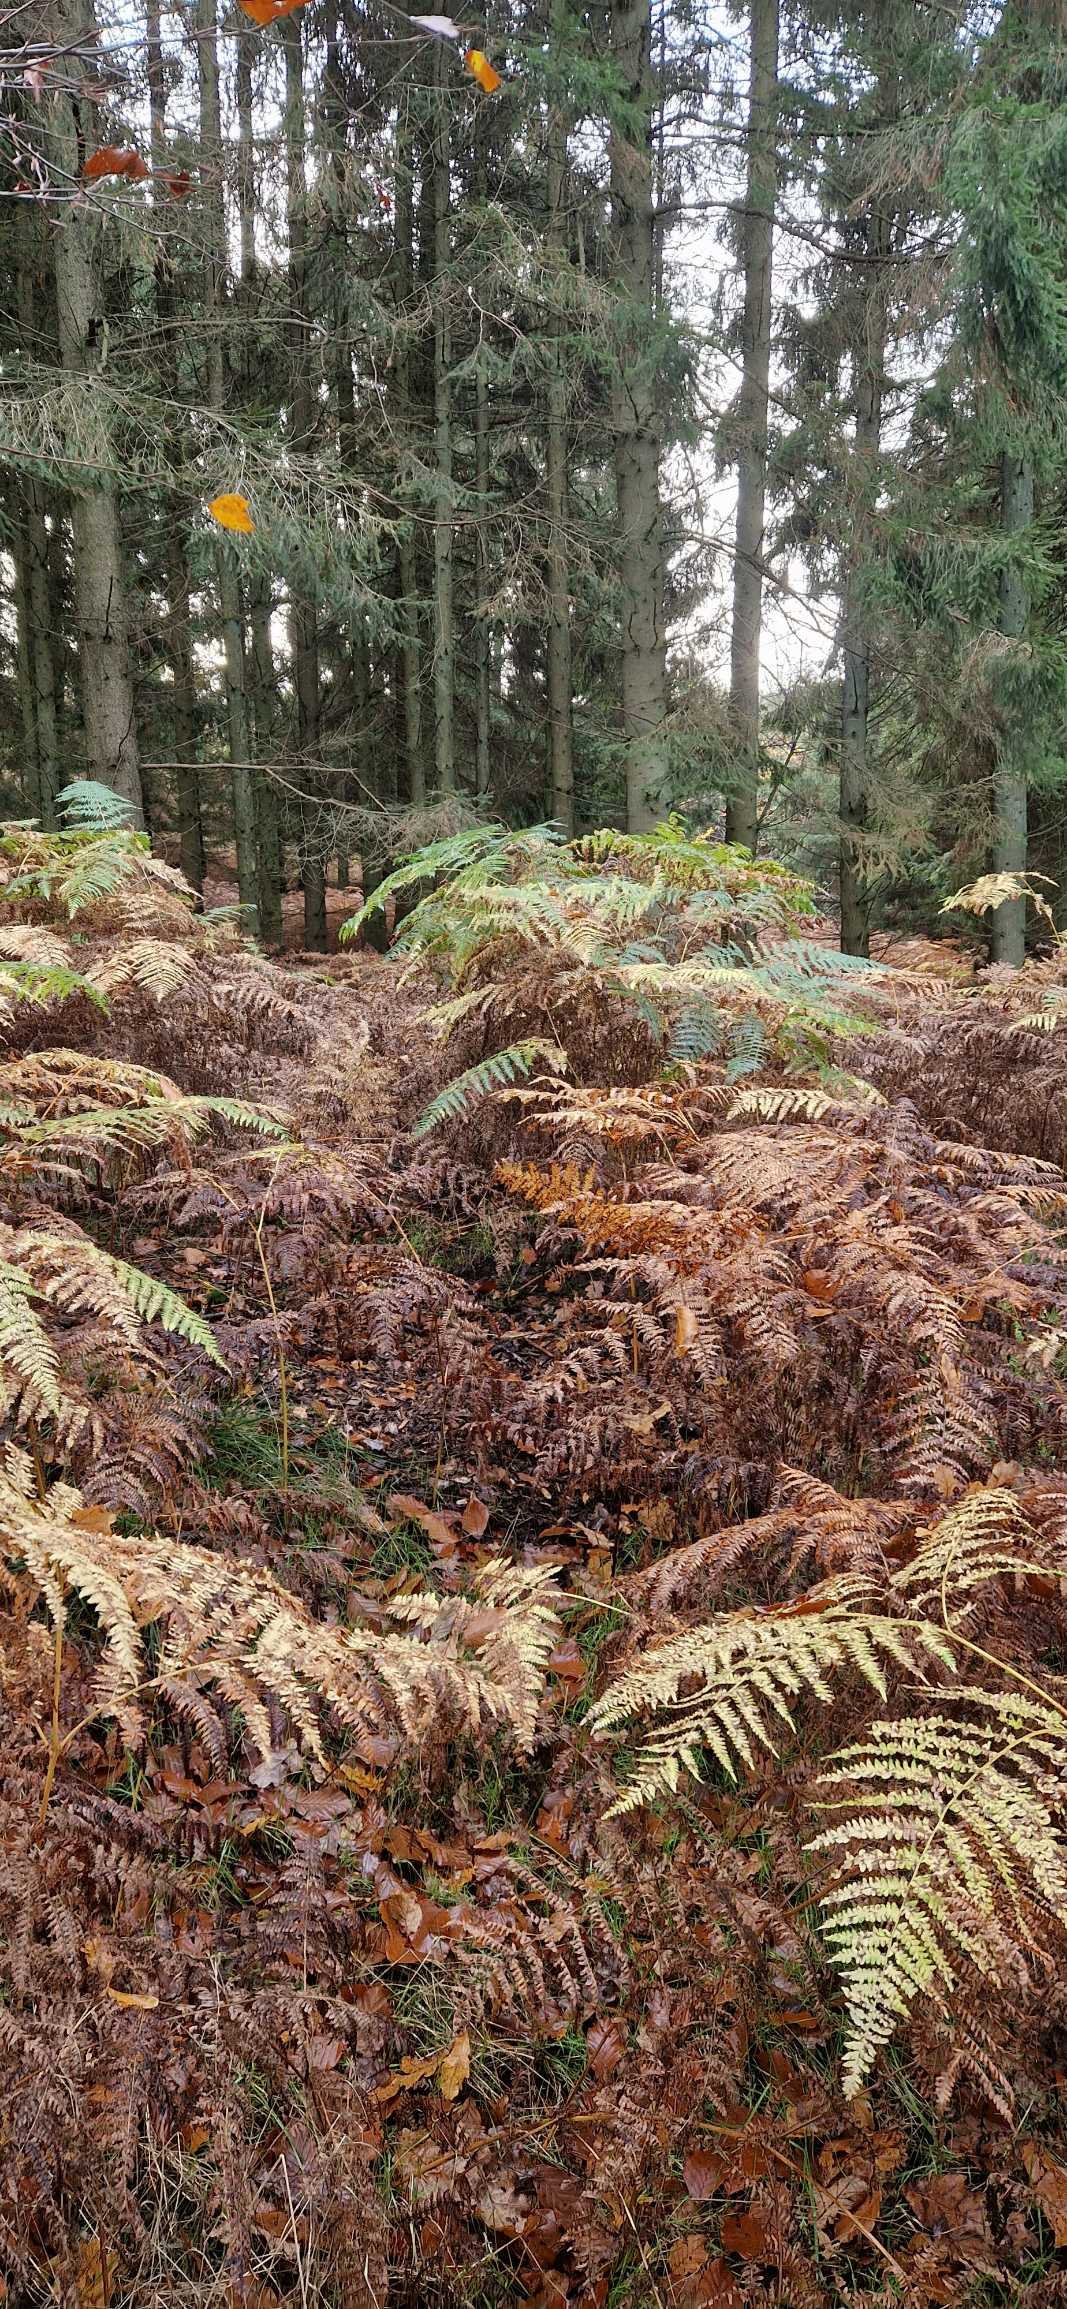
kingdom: Plantae
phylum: Tracheophyta
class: Polypodiopsida
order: Polypodiales
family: Dennstaedtiaceae
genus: Pteridium
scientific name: Pteridium aquilinum
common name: Ørnebregne
